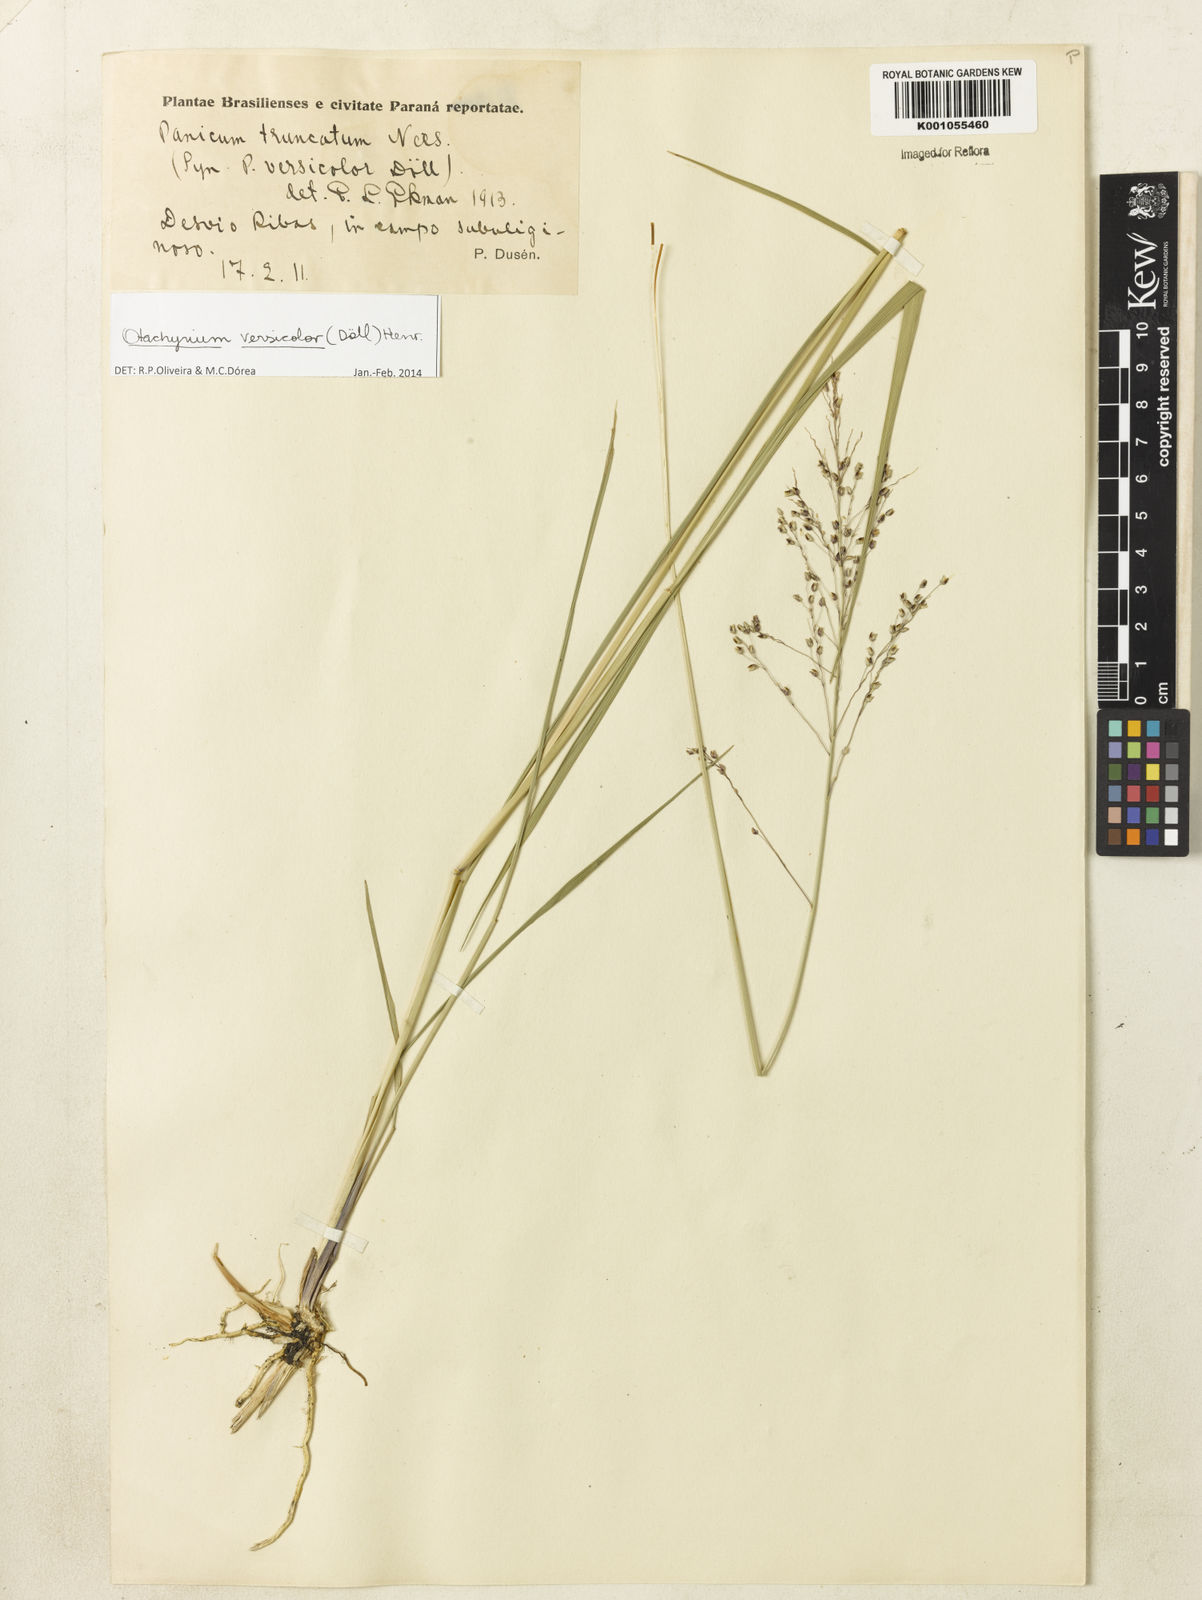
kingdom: Plantae
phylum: Tracheophyta
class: Liliopsida
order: Poales
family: Poaceae
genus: Otachyrium
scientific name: Otachyrium
